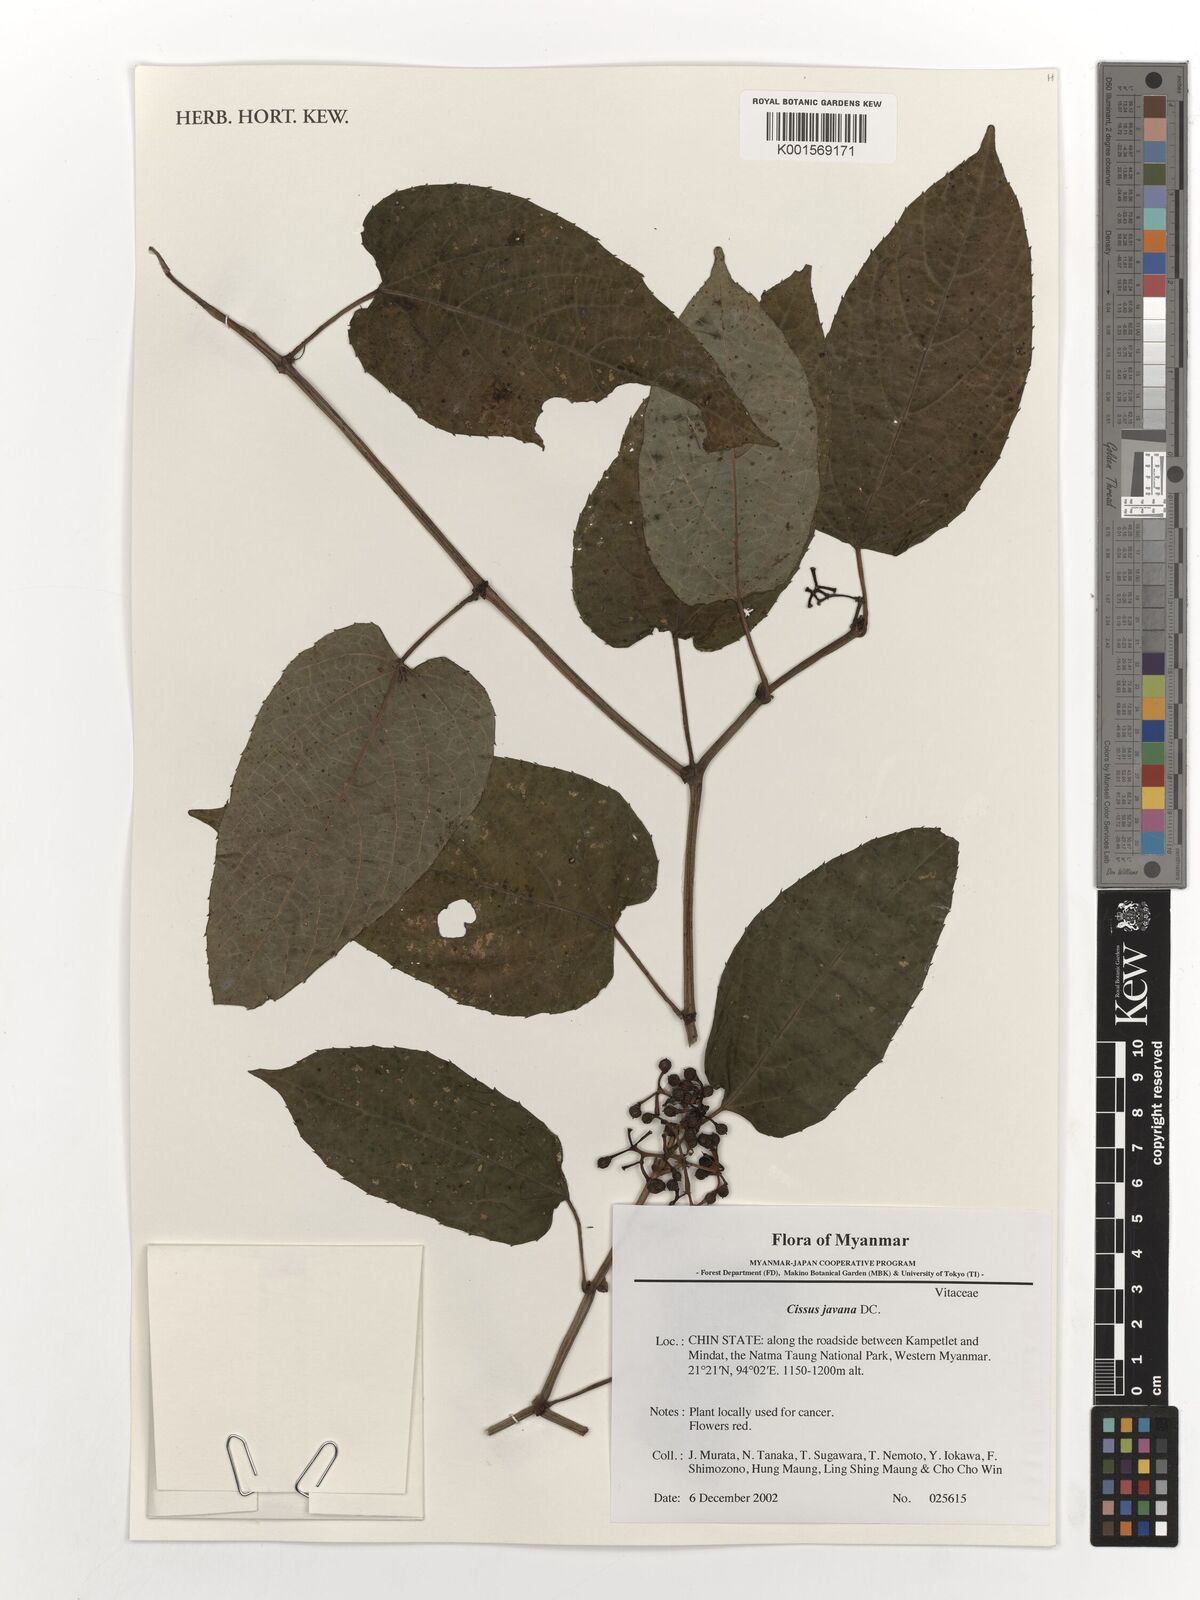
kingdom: Plantae
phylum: Tracheophyta
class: Magnoliopsida
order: Vitales
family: Vitaceae
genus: Cissus
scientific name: Cissus discolor
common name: Climbing-begonia
